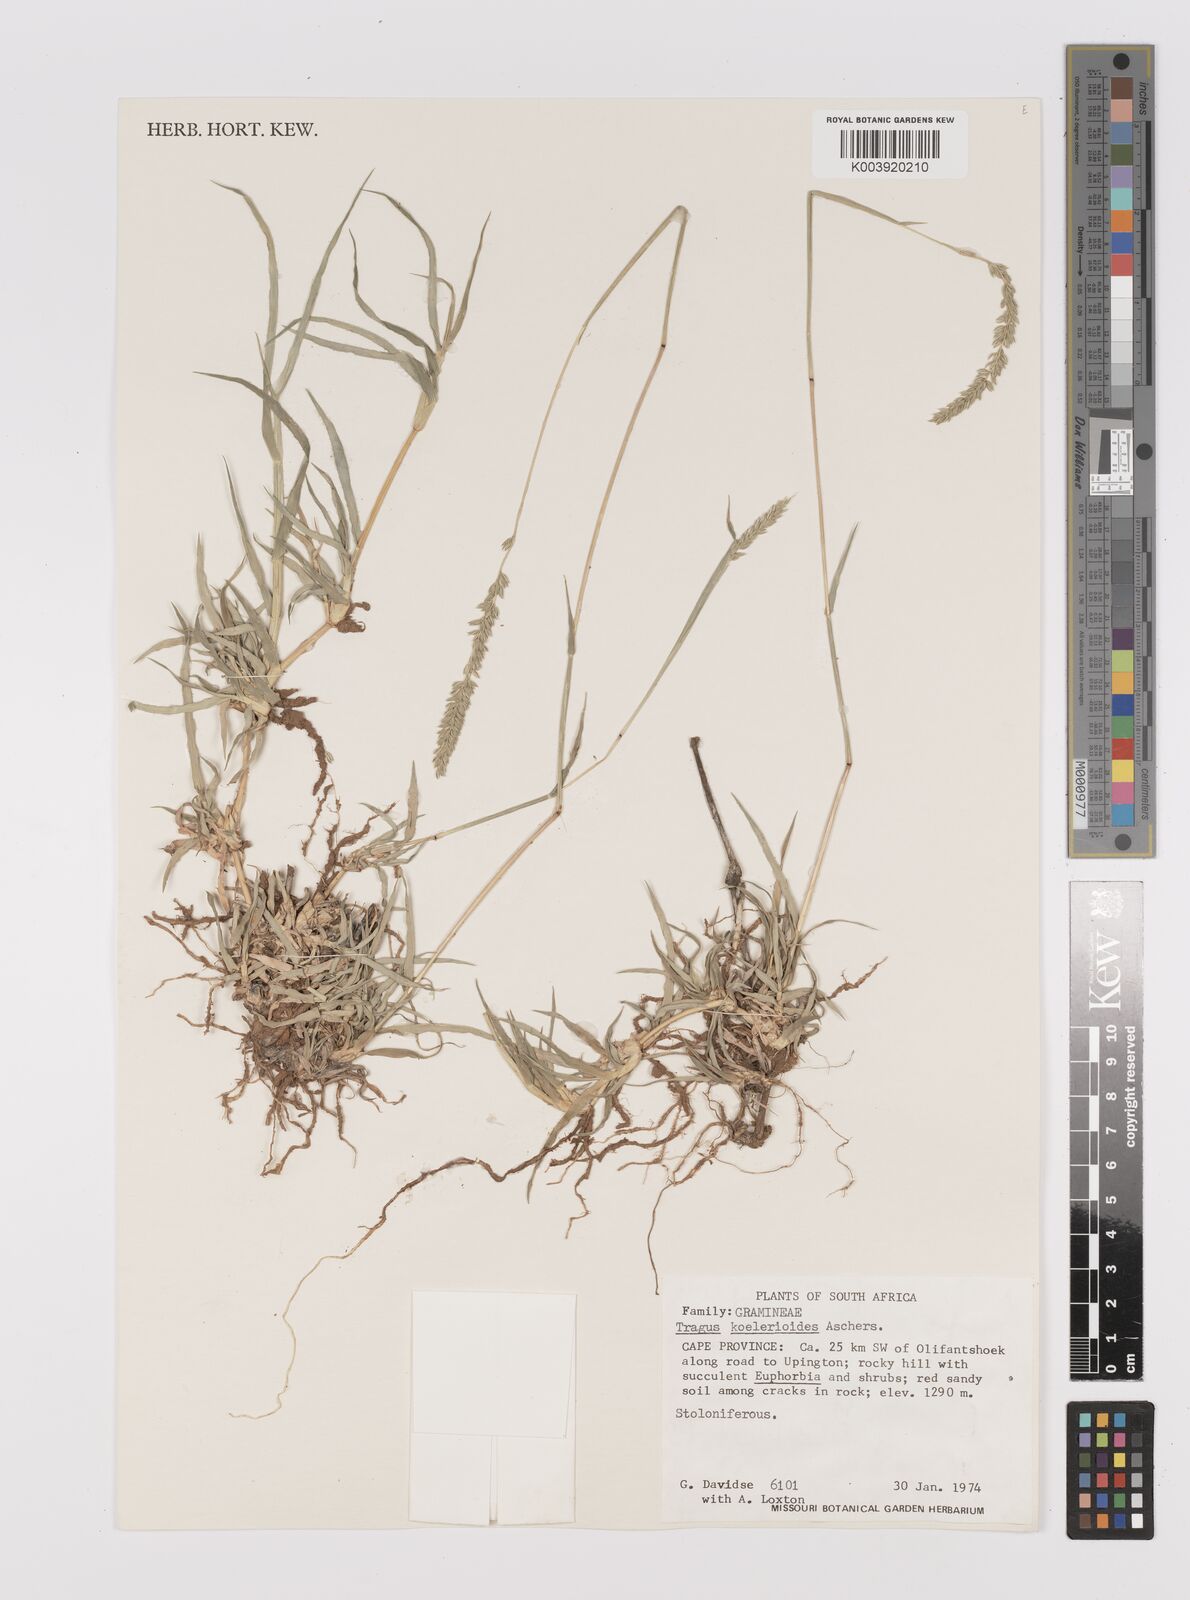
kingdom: Plantae
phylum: Tracheophyta
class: Liliopsida
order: Poales
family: Poaceae
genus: Tragus
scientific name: Tragus koelerioides
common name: Creeping carrot-seed grass
